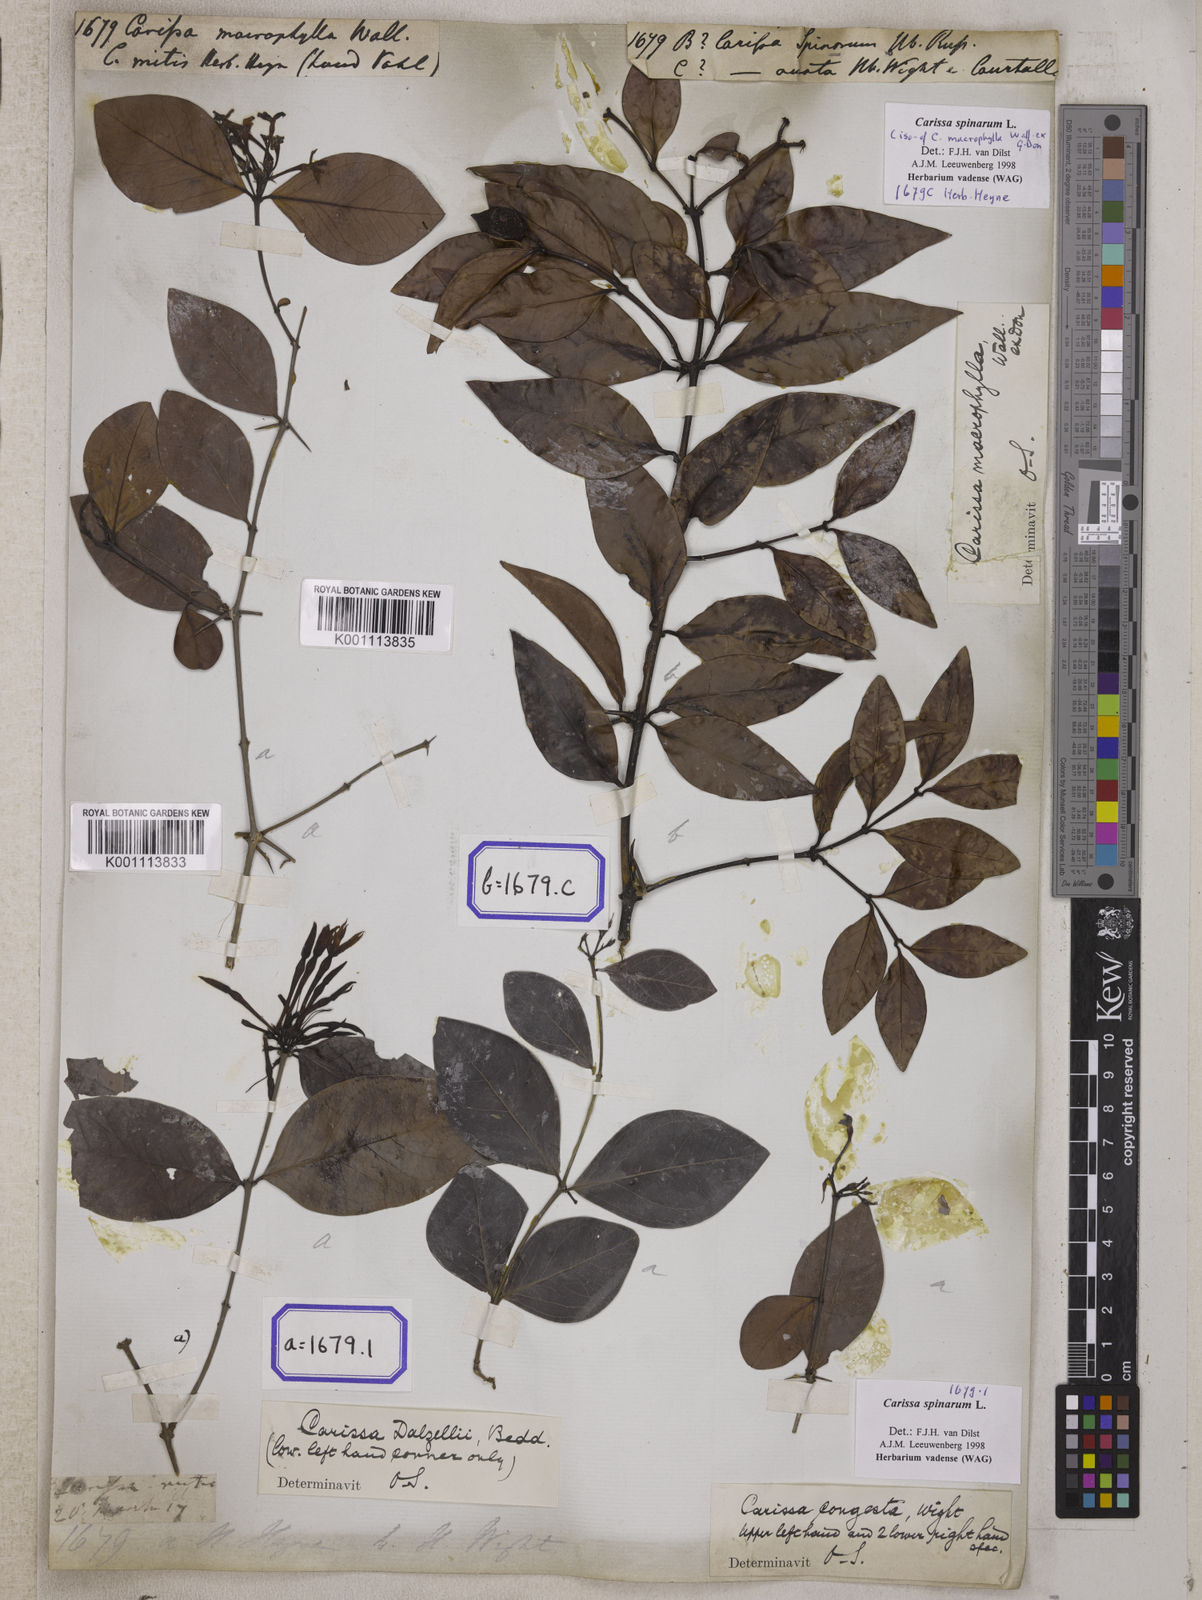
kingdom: Plantae
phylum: Tracheophyta
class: Magnoliopsida
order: Gentianales
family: Apocynaceae
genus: Carissa
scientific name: Carissa
